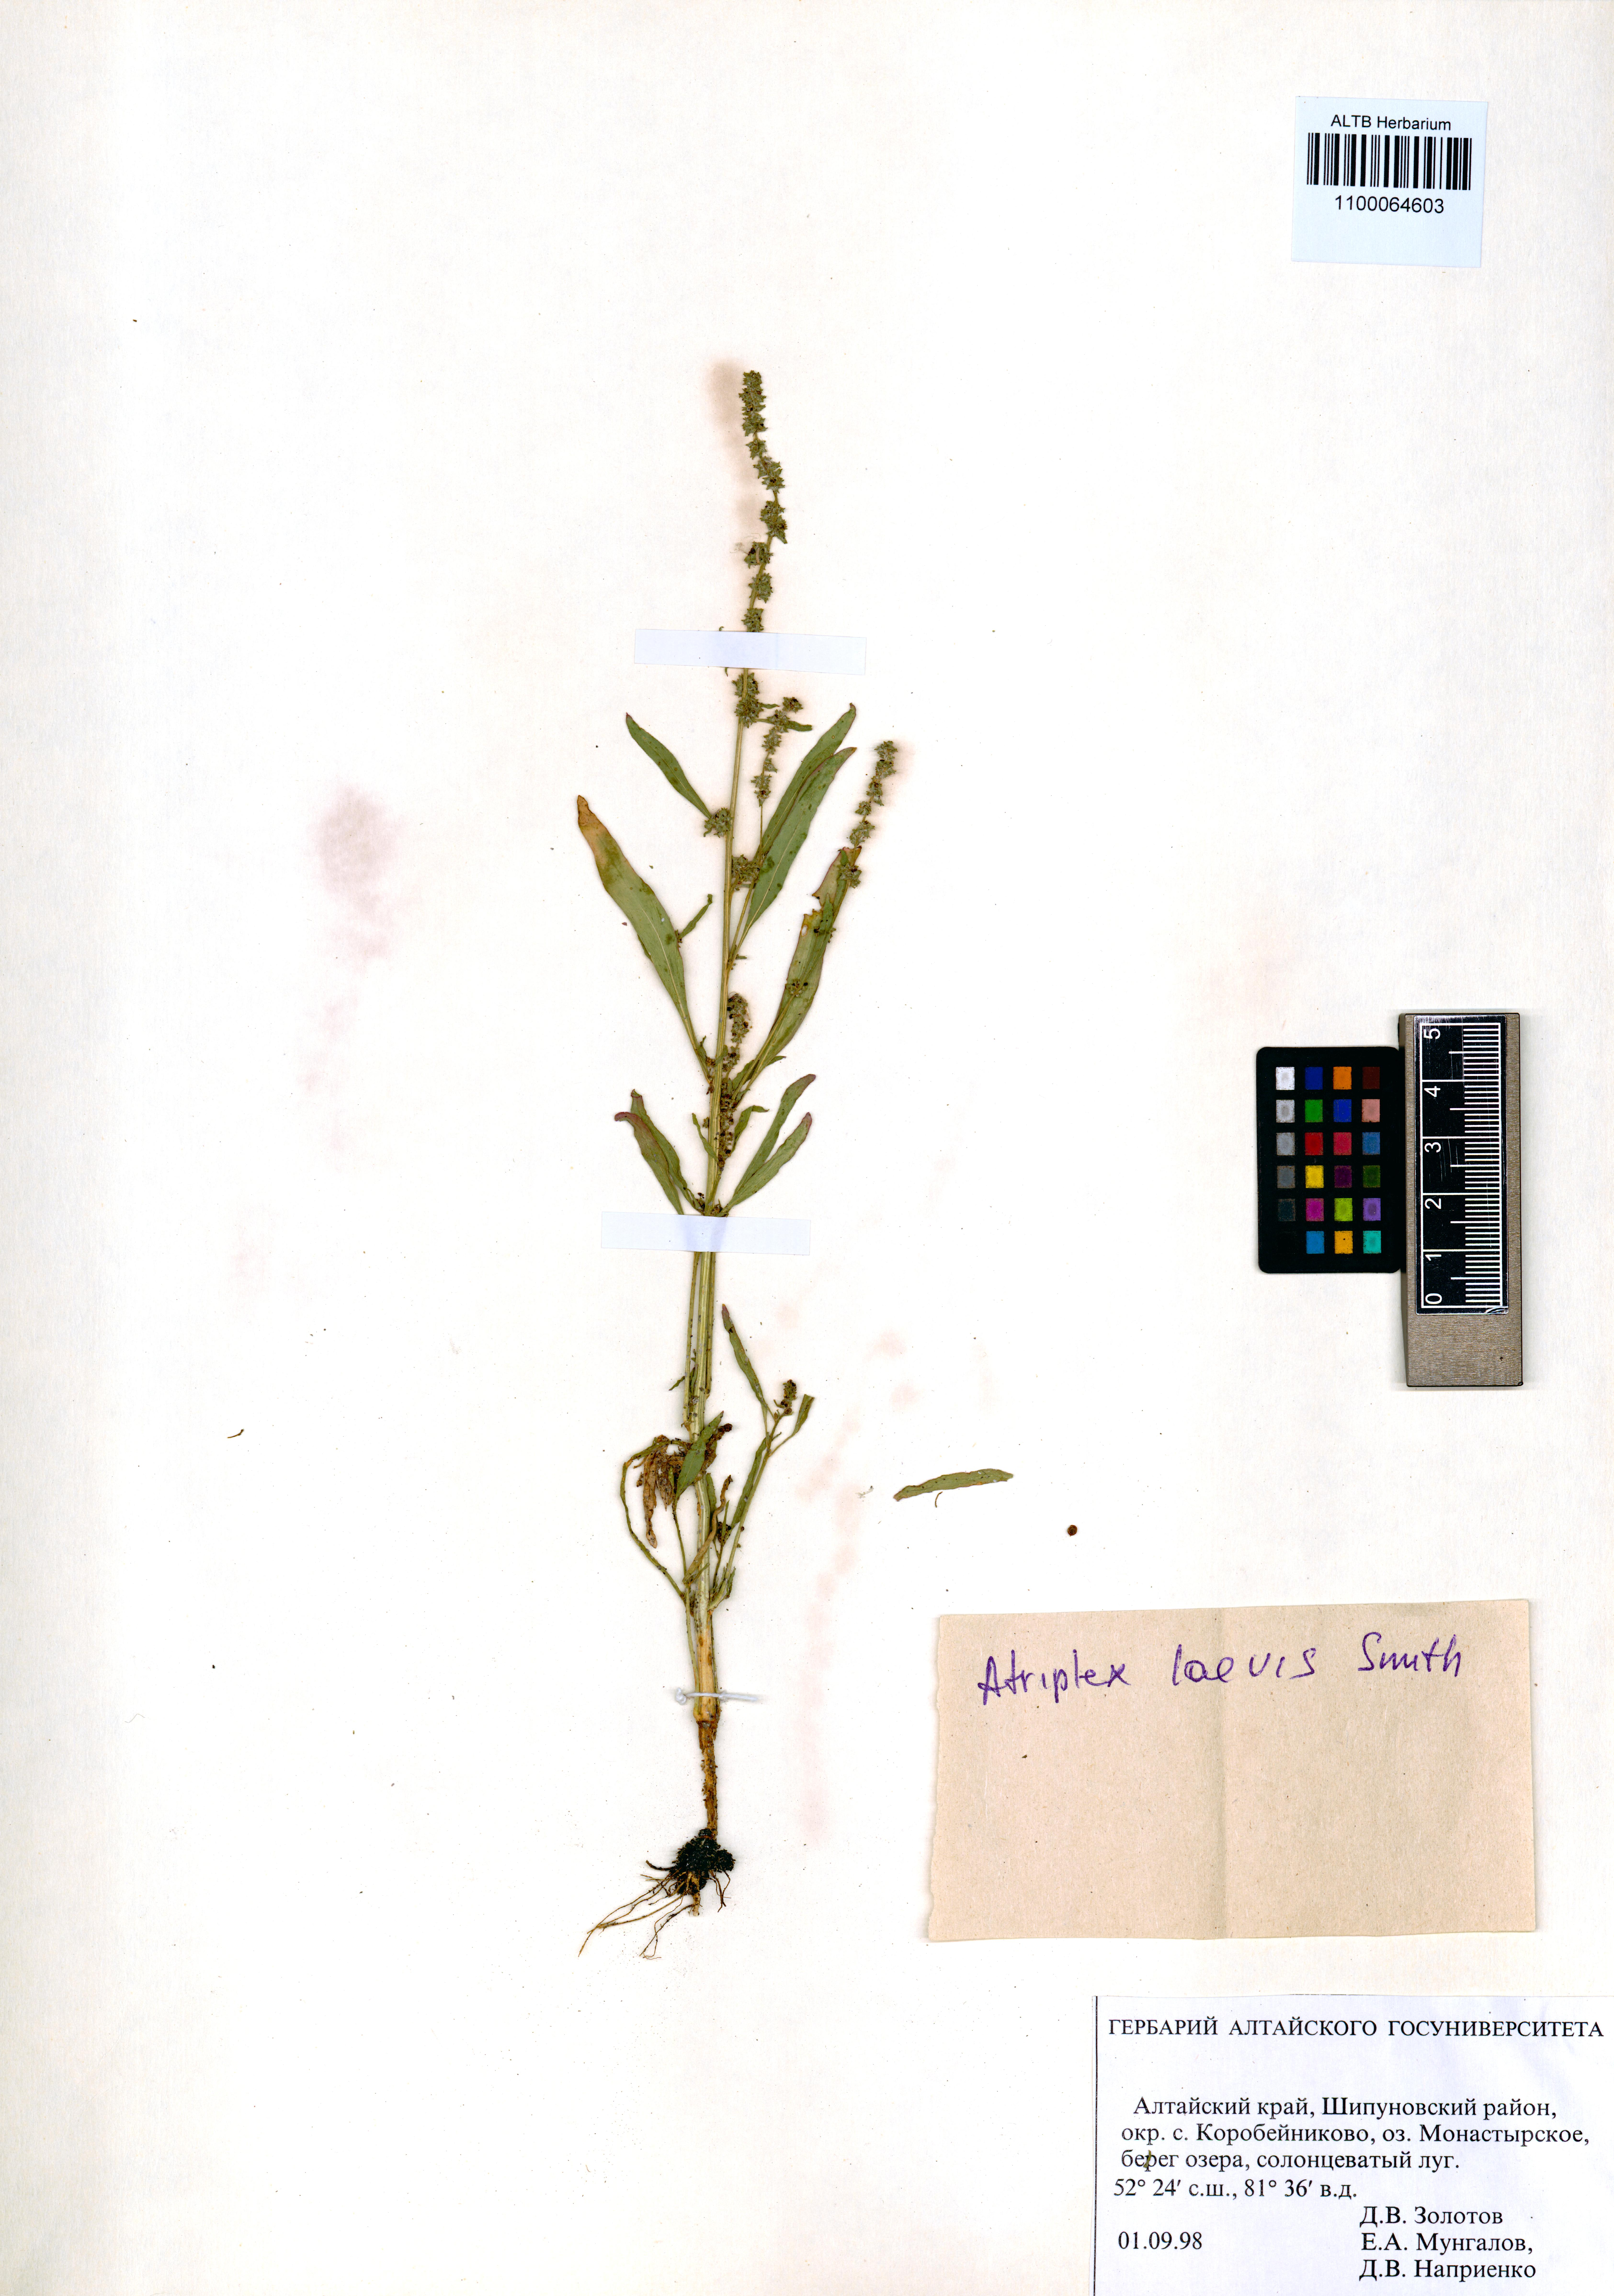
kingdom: Plantae
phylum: Tracheophyta
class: Magnoliopsida
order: Caryophyllales
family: Amaranthaceae
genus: Atriplex
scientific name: Atriplex laevis
